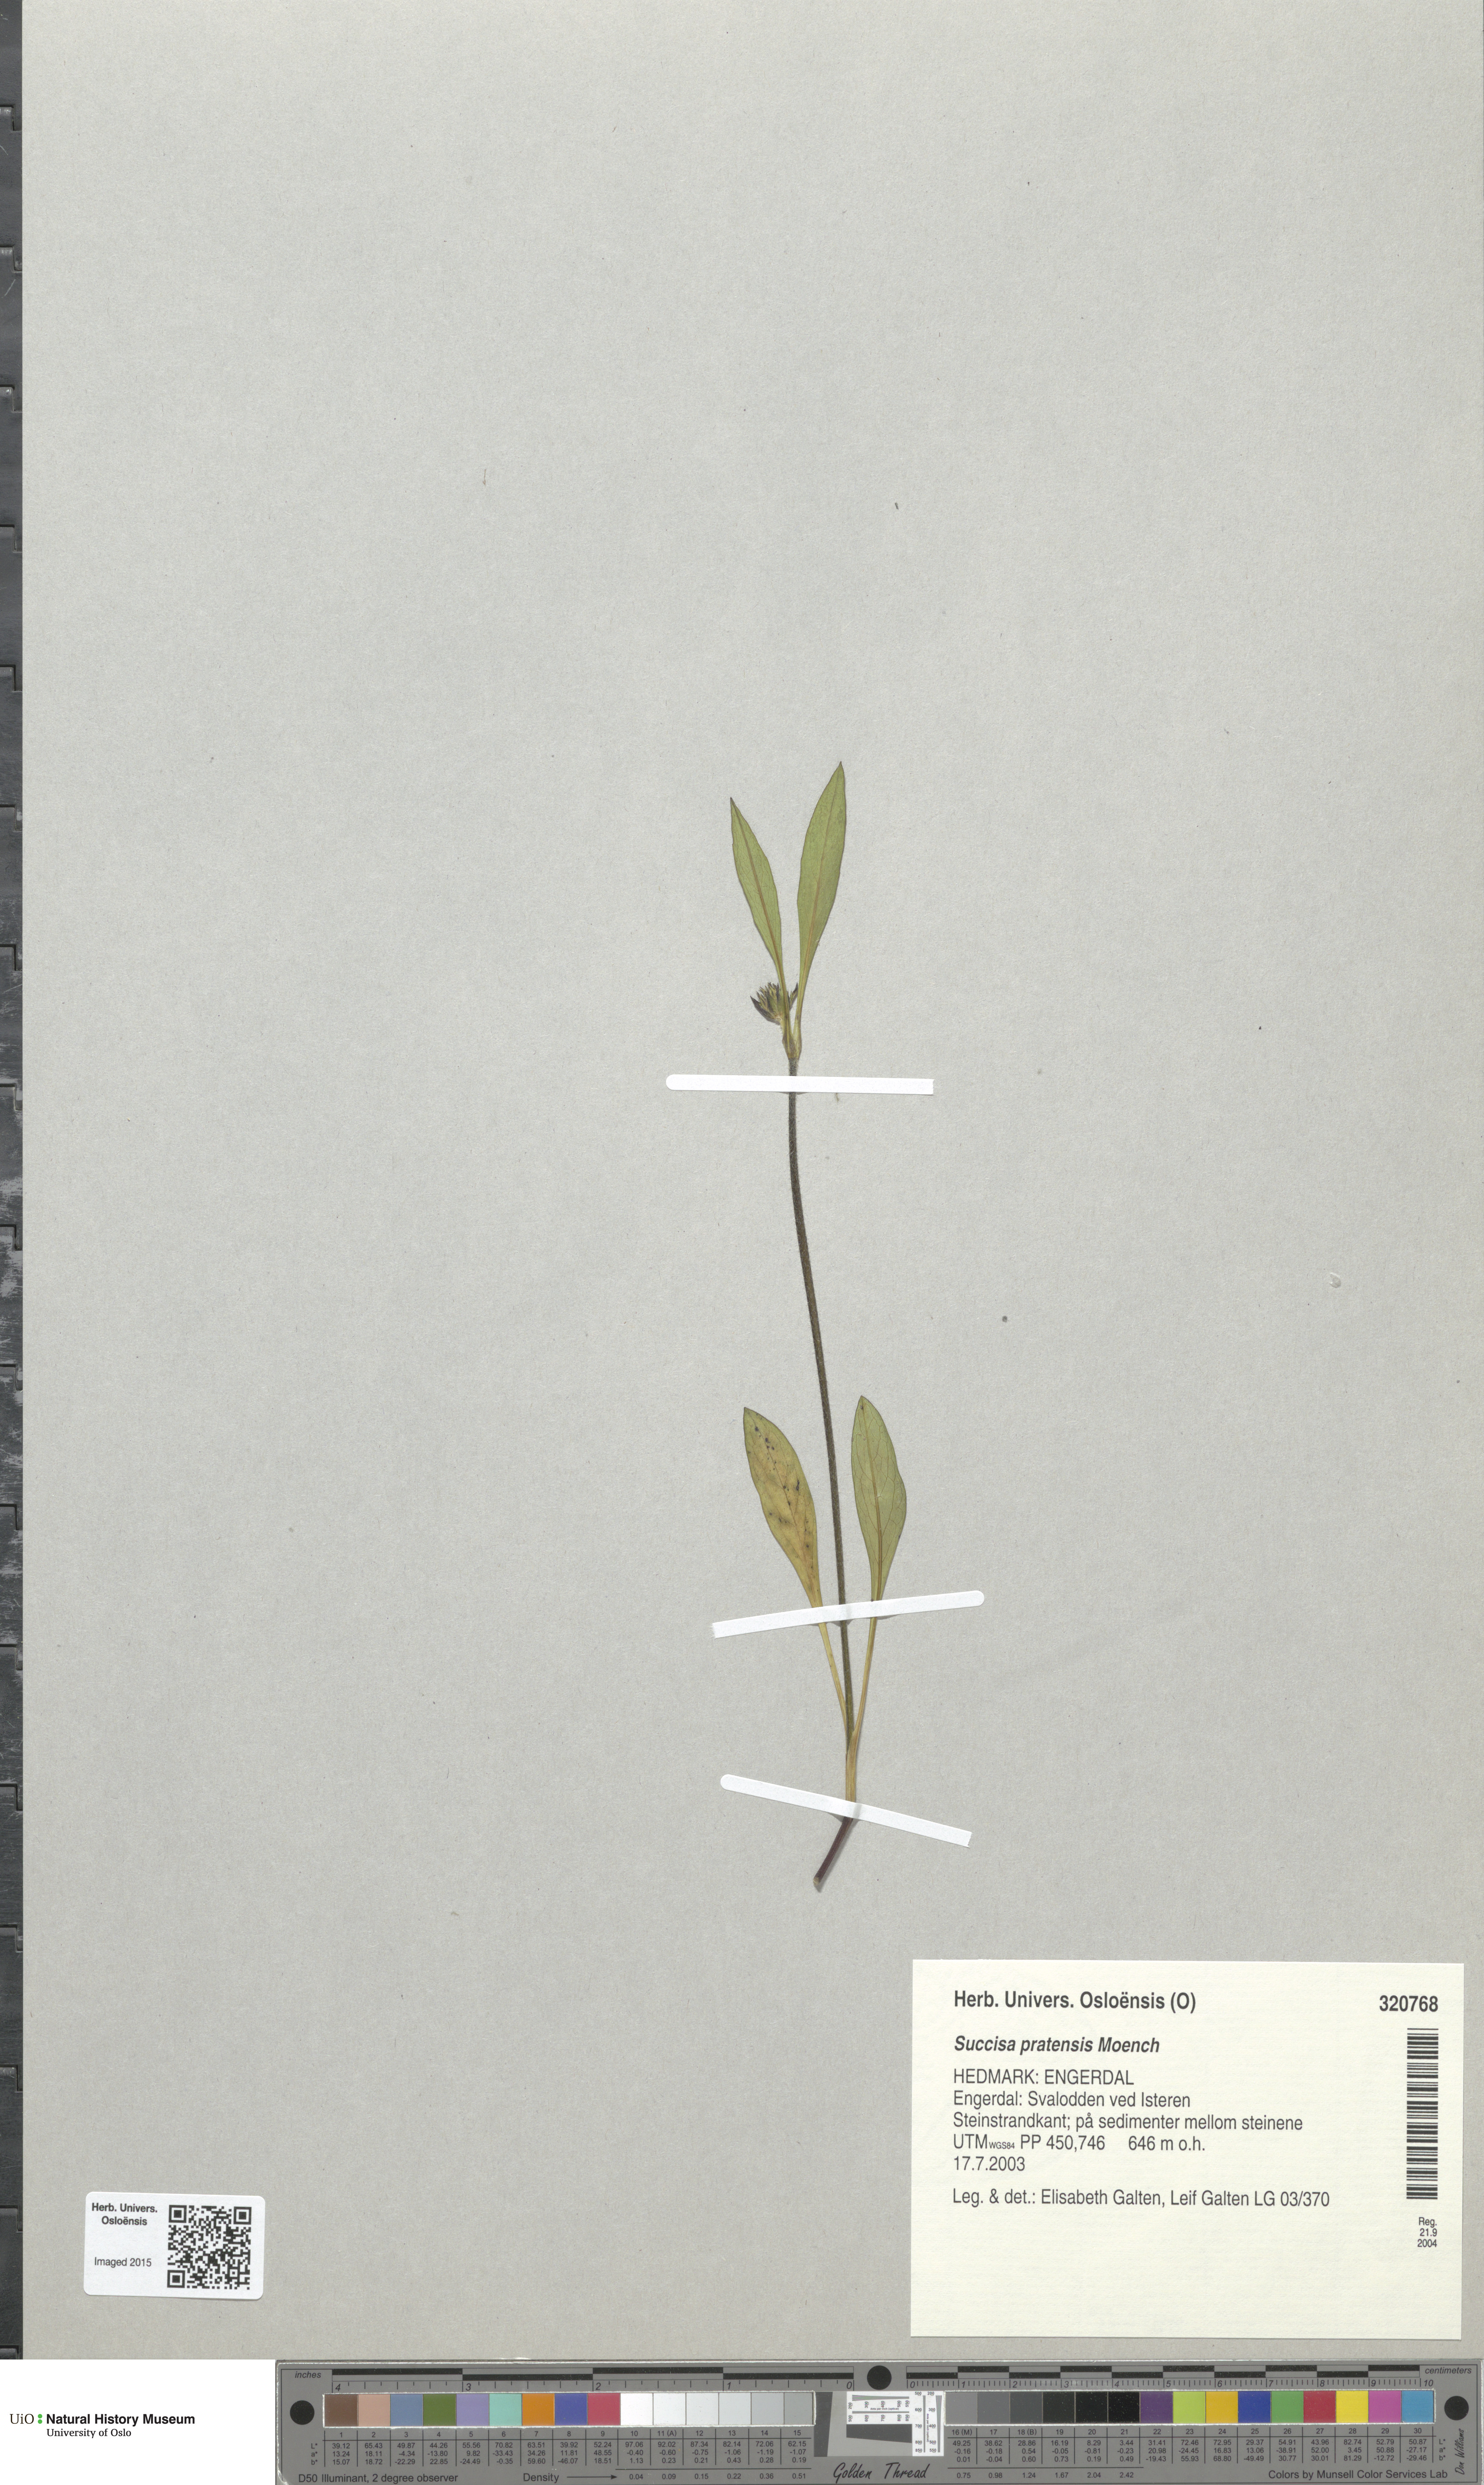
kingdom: Plantae
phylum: Tracheophyta
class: Magnoliopsida
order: Dipsacales
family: Caprifoliaceae
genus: Succisa
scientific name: Succisa pratensis
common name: Devil's-bit
